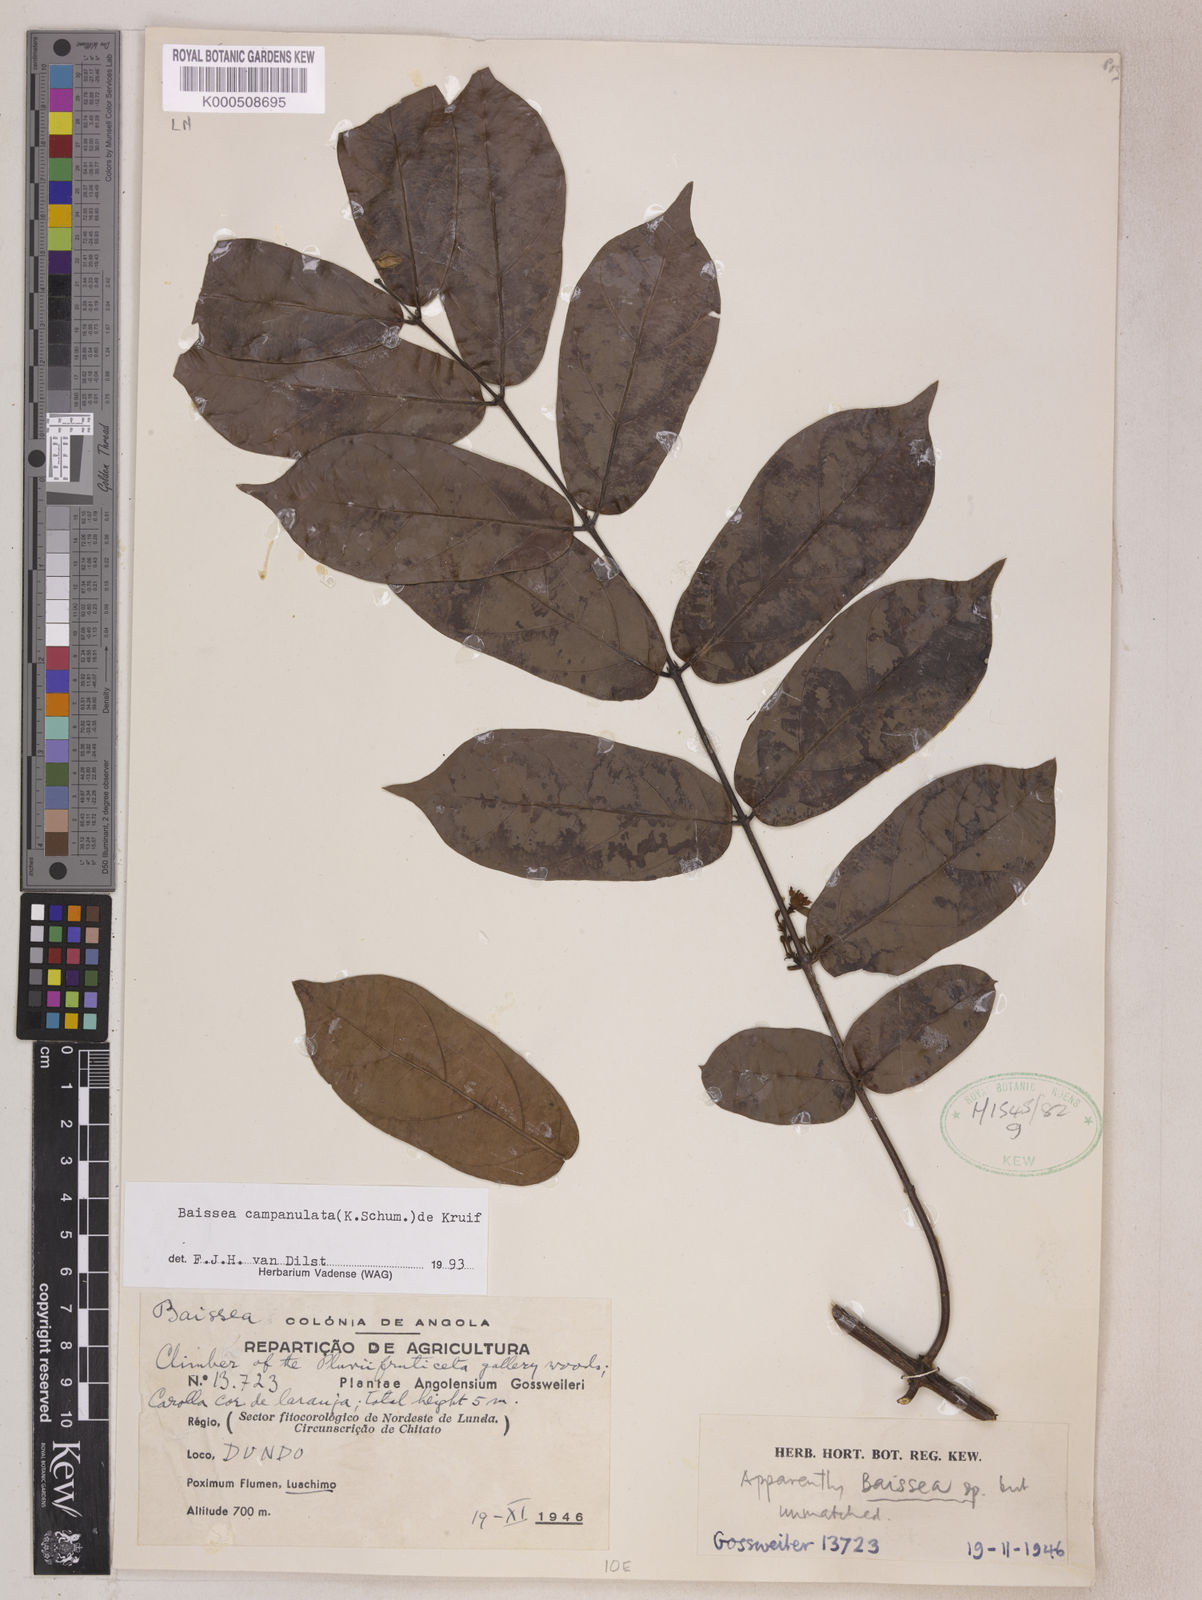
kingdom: Plantae
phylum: Tracheophyta
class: Magnoliopsida
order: Gentianales
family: Apocynaceae
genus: Baissea
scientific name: Baissea campanulata
